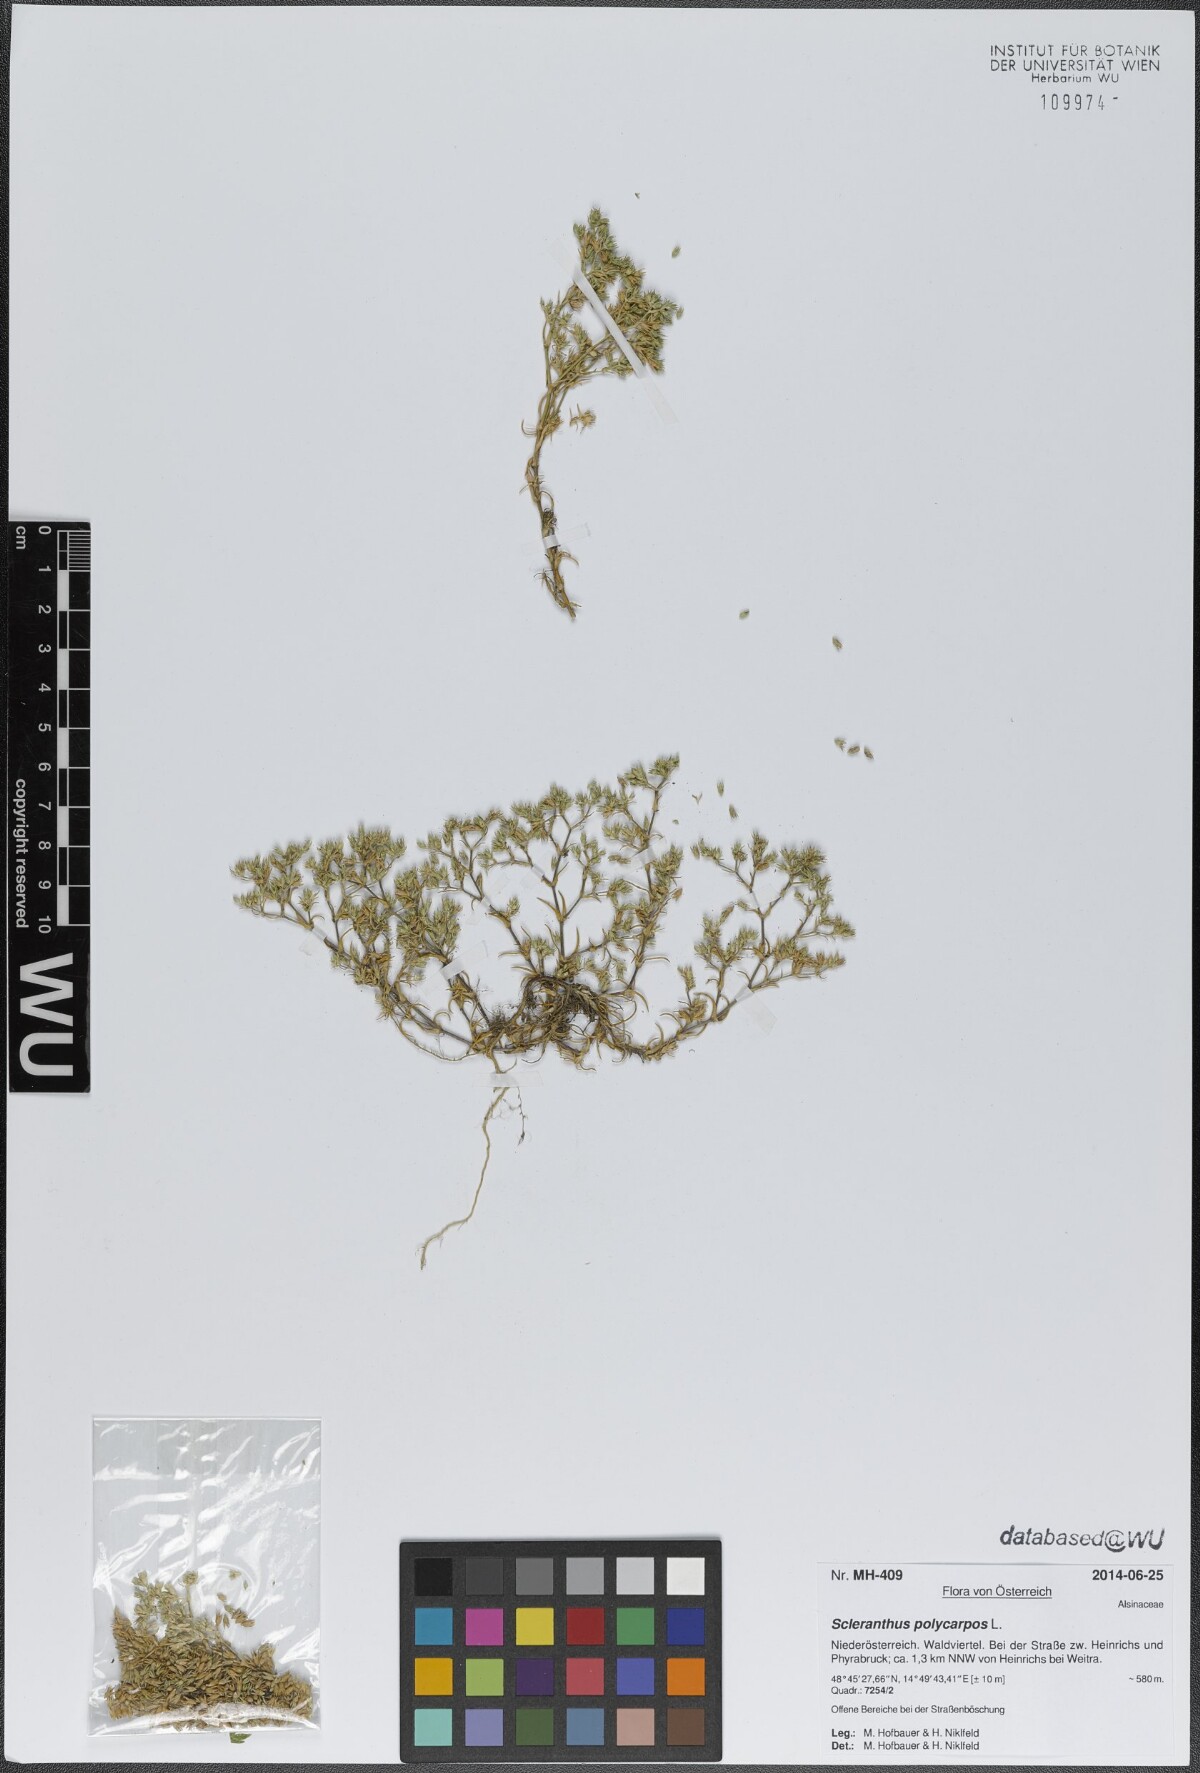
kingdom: Plantae
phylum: Tracheophyta
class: Magnoliopsida
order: Caryophyllales
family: Caryophyllaceae
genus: Scleranthus
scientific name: Scleranthus annuus
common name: Annual knawel
